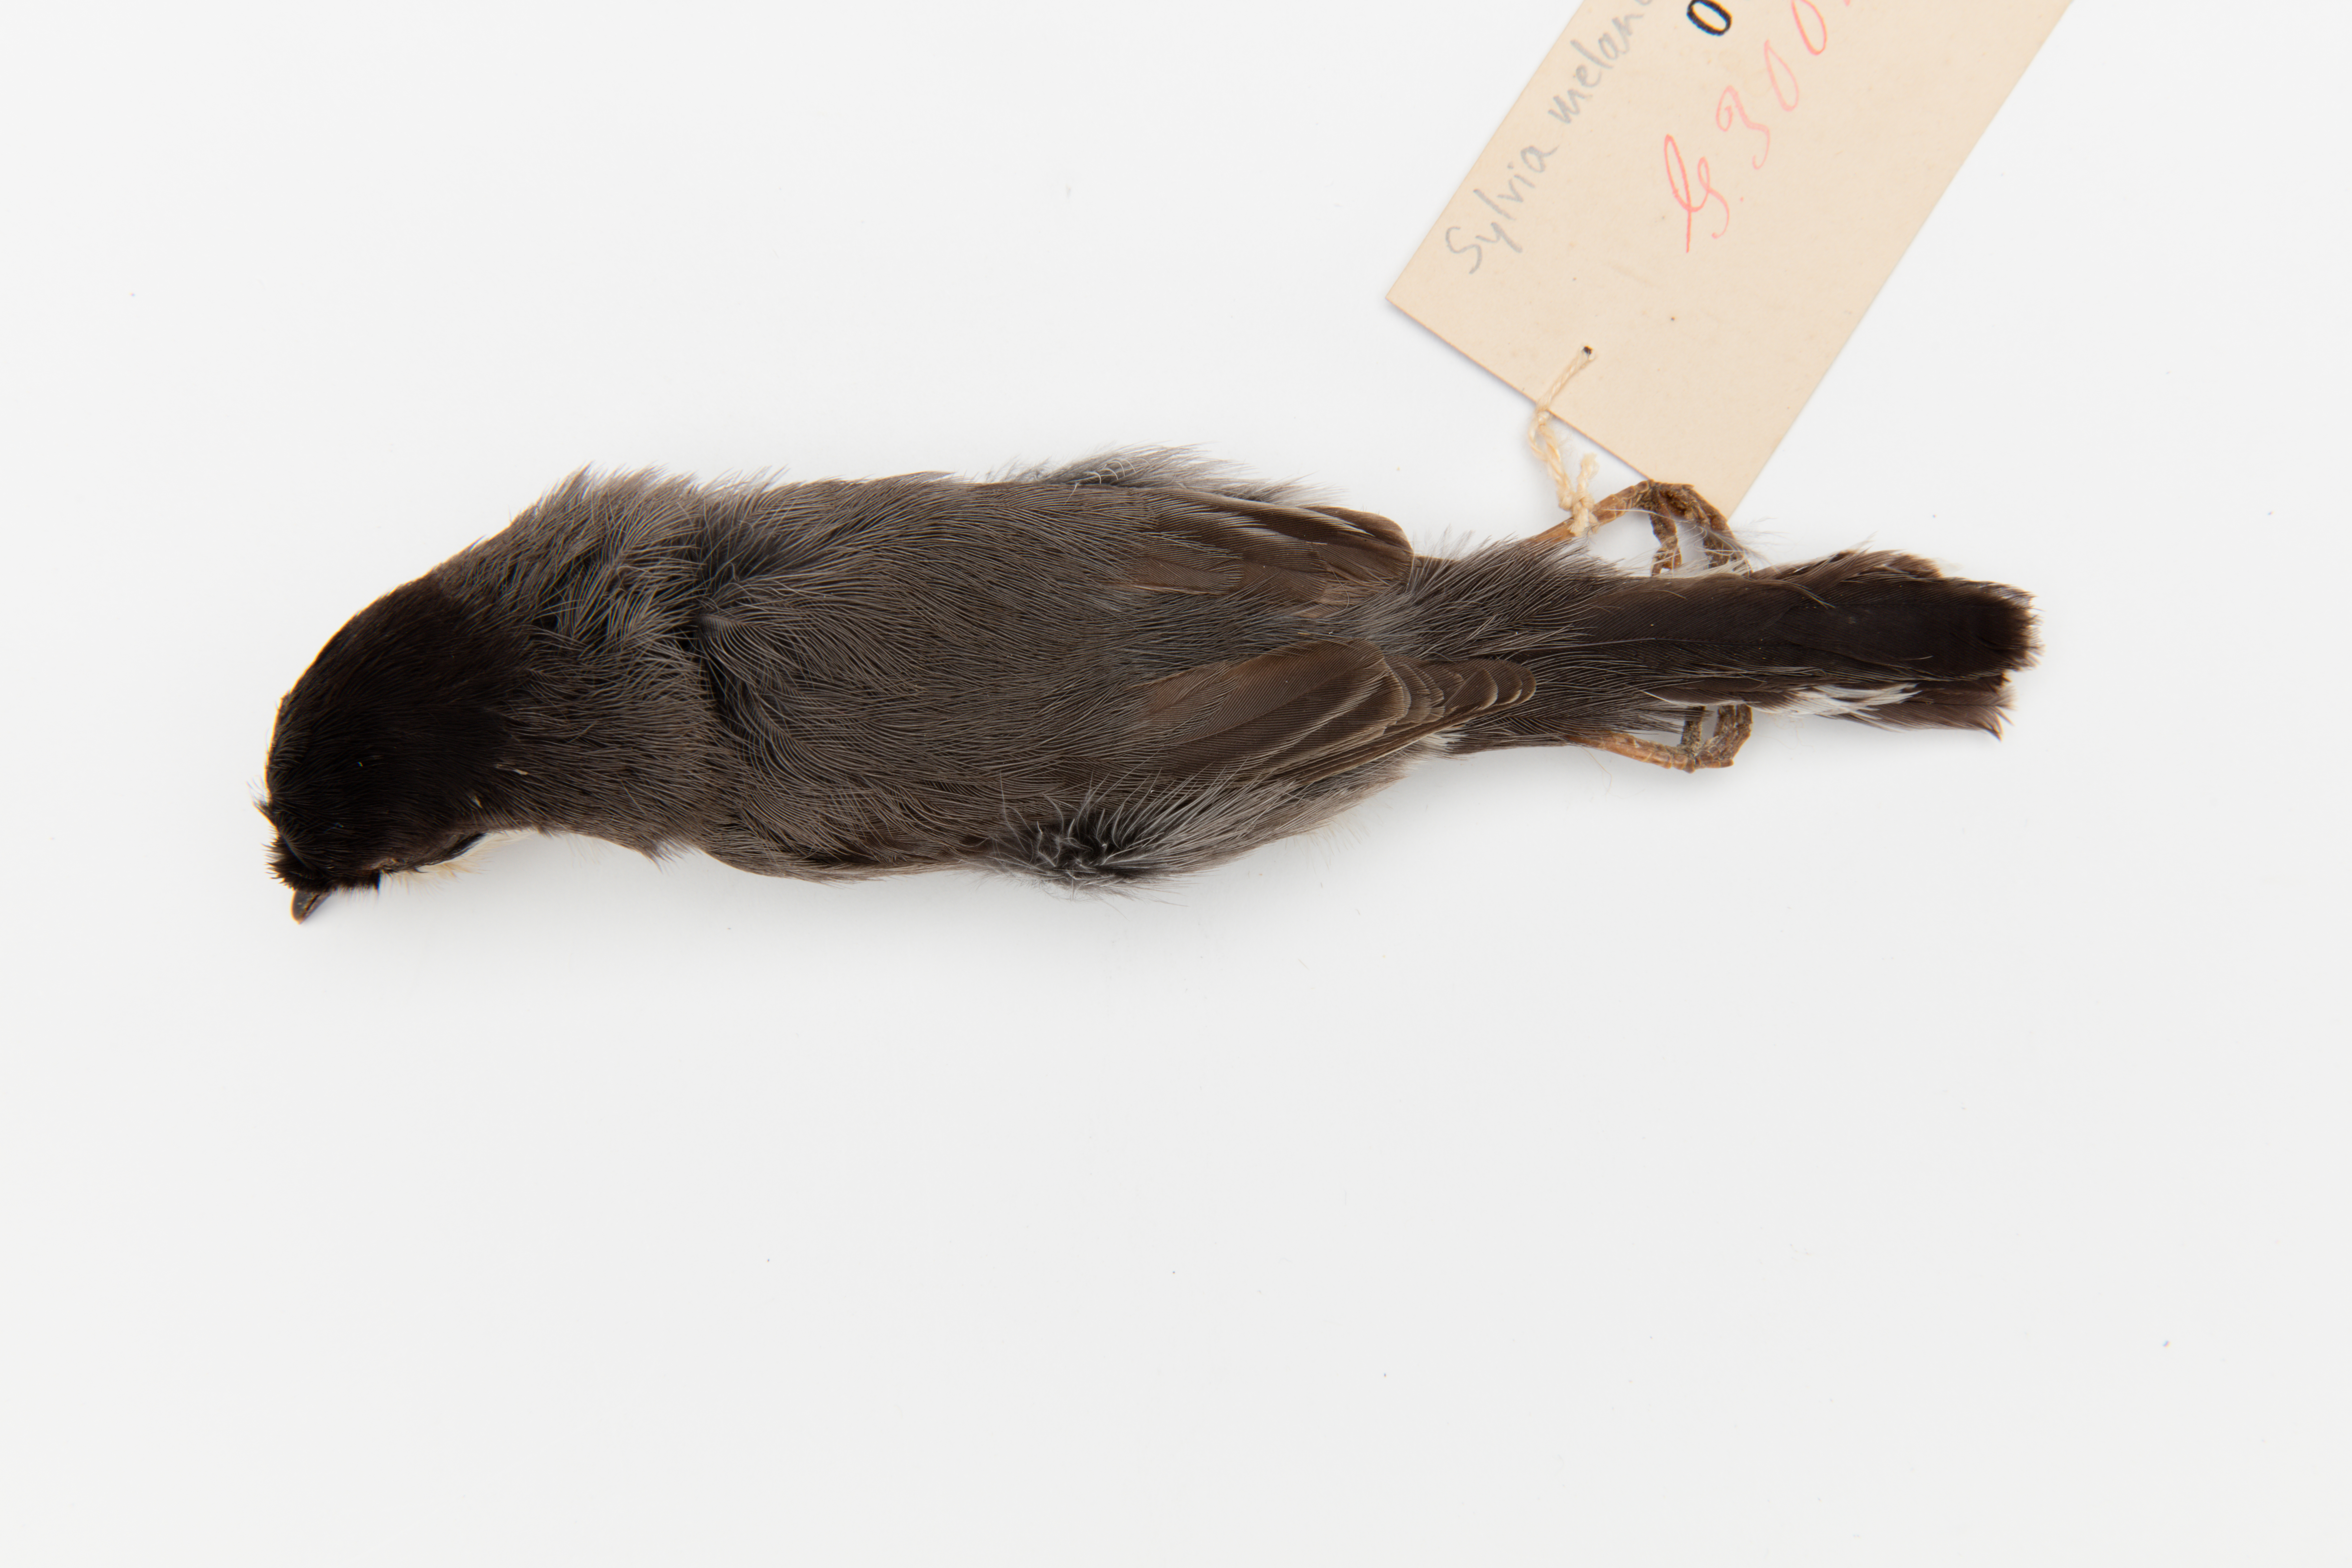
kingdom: Animalia
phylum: Chordata
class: Aves
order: Passeriformes
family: Sylviidae
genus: Sylvia
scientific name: Sylvia melanocephala
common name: Sardinian warbler
